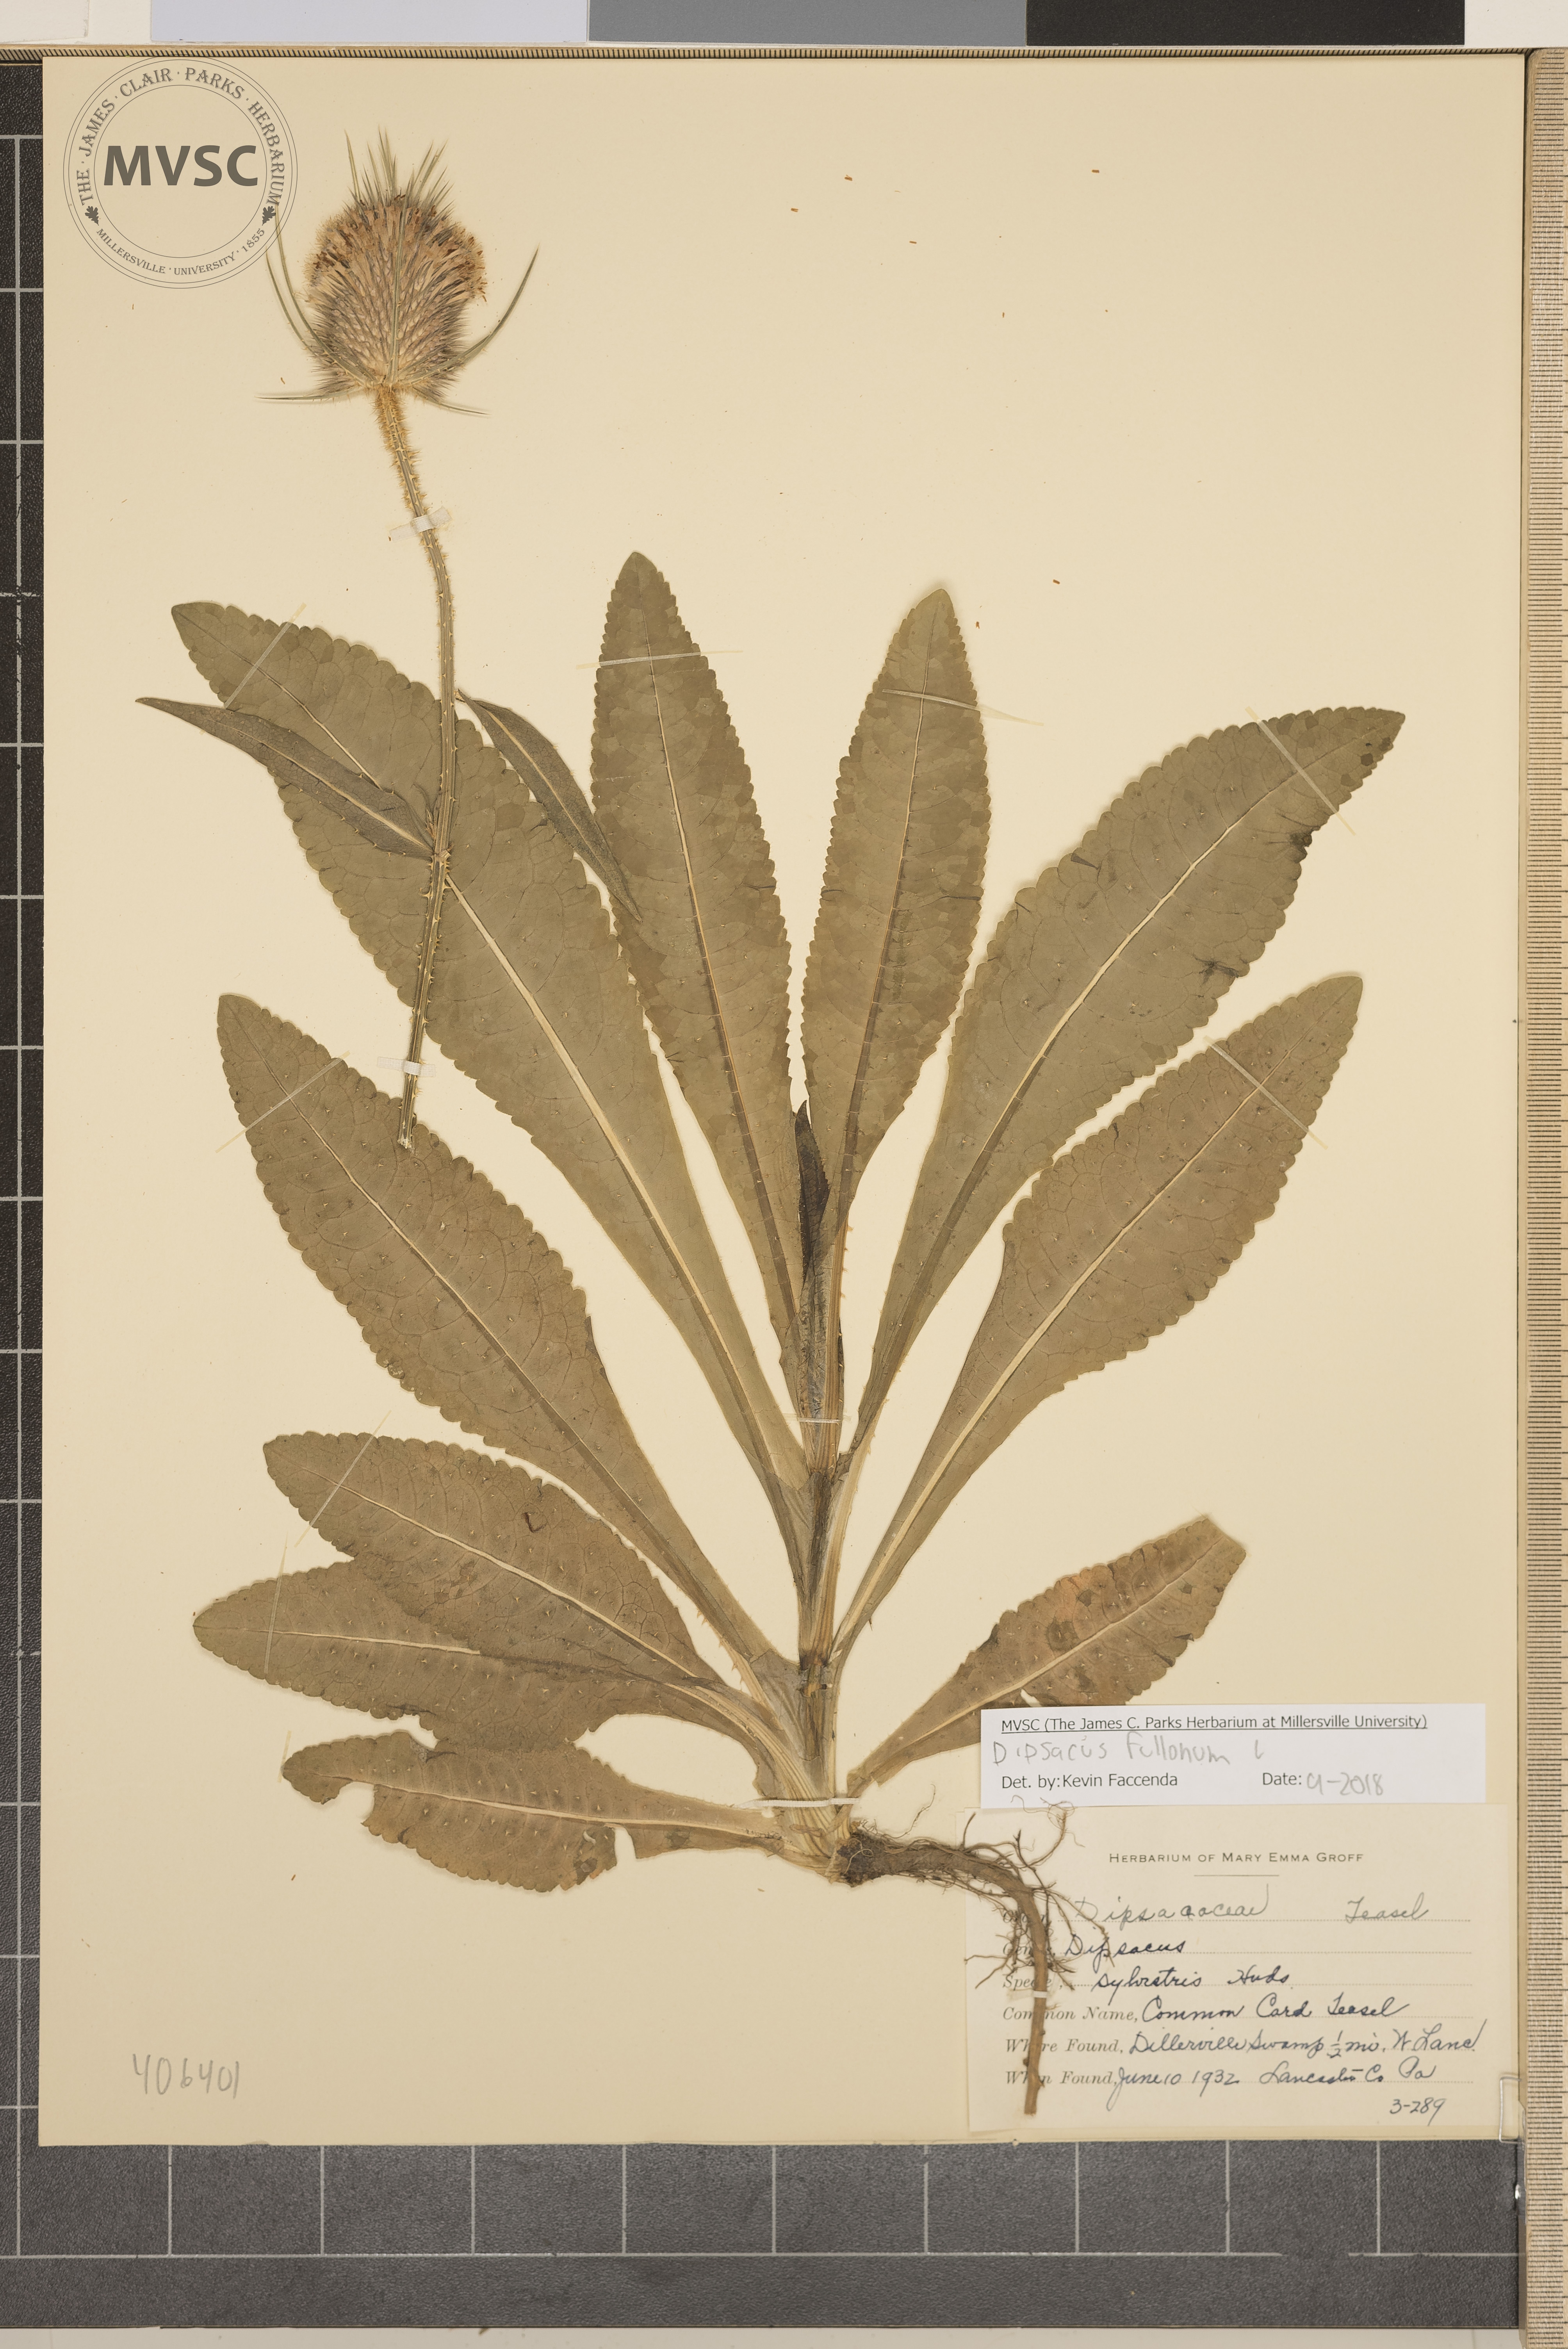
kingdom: Plantae
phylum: Tracheophyta
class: Magnoliopsida
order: Dipsacales
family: Caprifoliaceae
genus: Dipsacus
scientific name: Dipsacus fullonum
